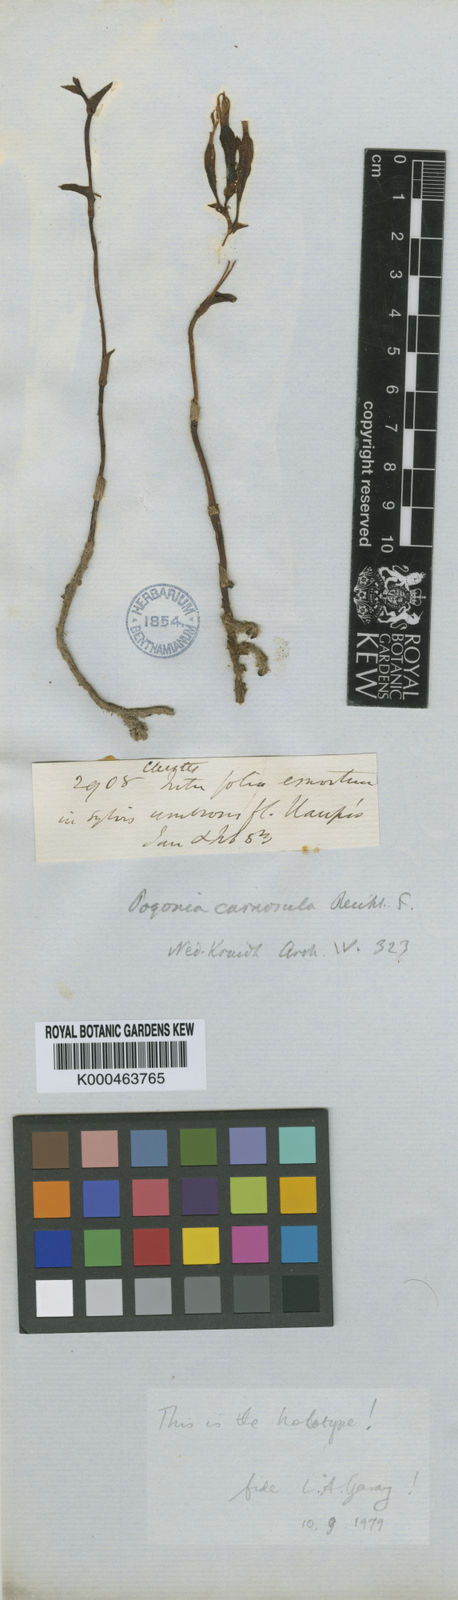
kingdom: Plantae
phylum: Tracheophyta
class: Liliopsida
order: Asparagales
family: Orchidaceae
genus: Triphora
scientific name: Triphora carnosula
